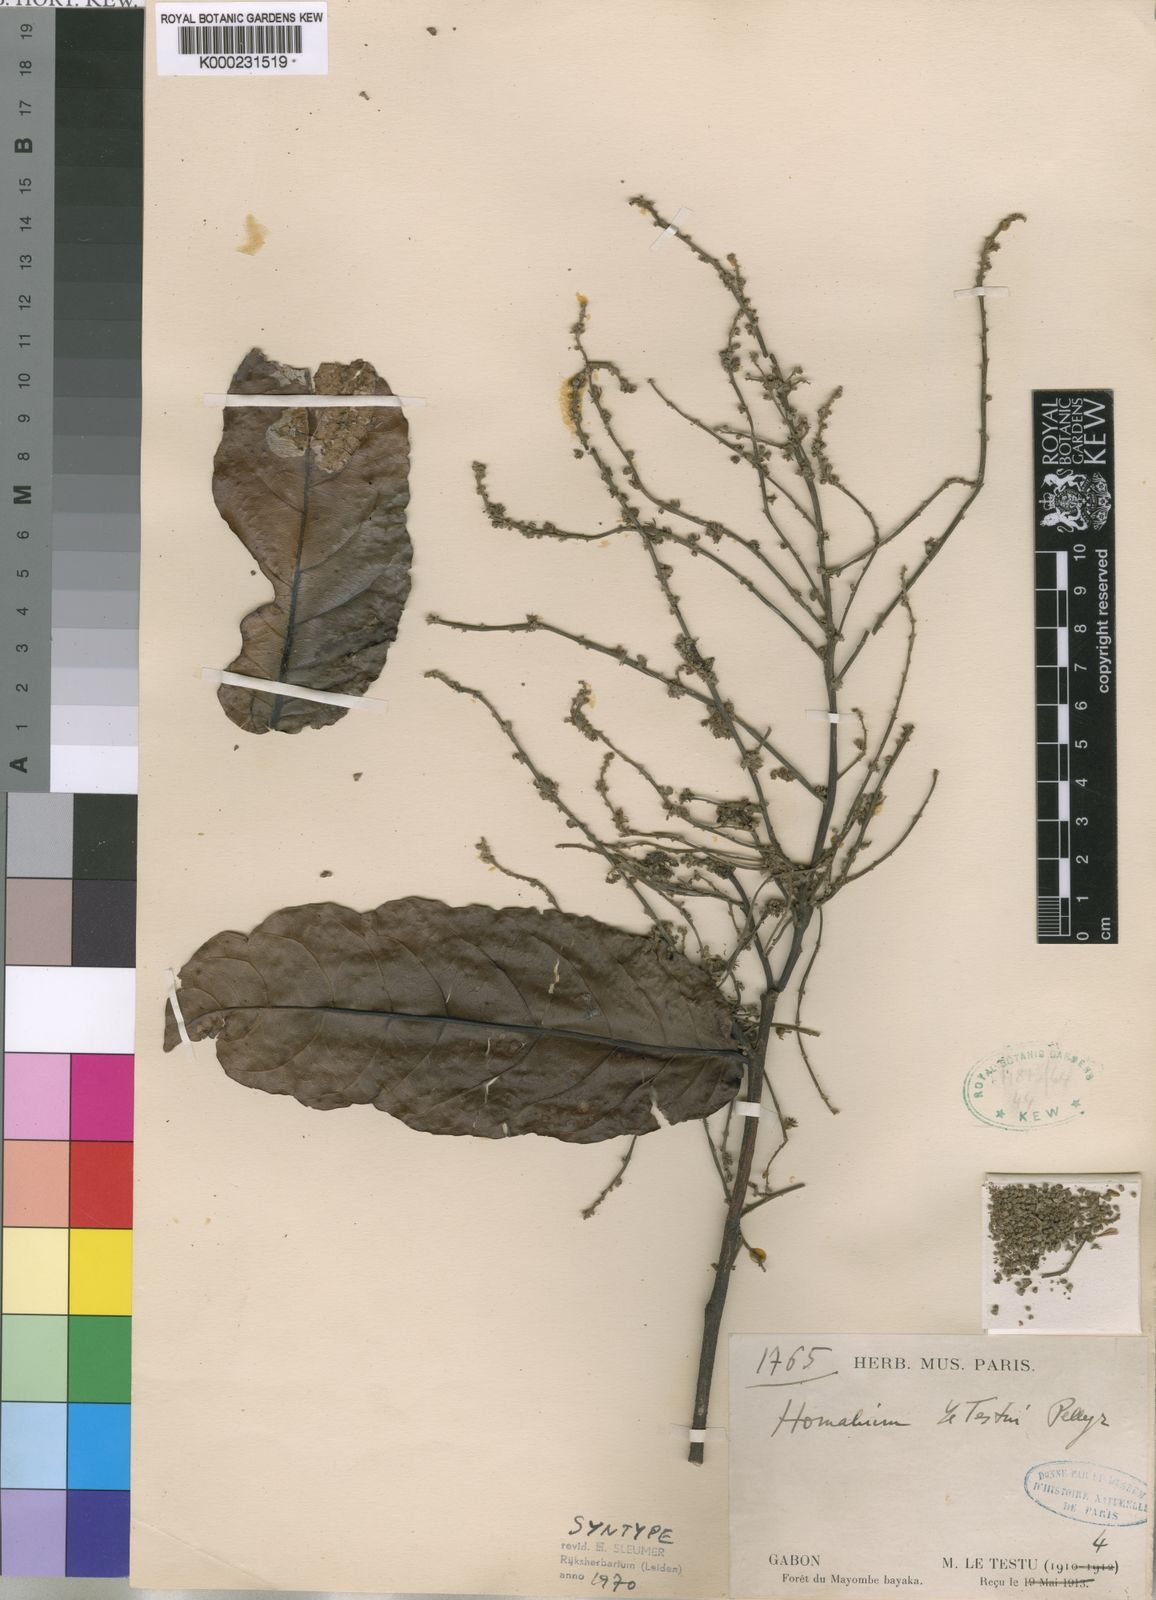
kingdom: Plantae
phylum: Tracheophyta
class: Magnoliopsida
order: Malpighiales
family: Salicaceae
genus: Homalium
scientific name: Homalium letestui
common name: African homalium
